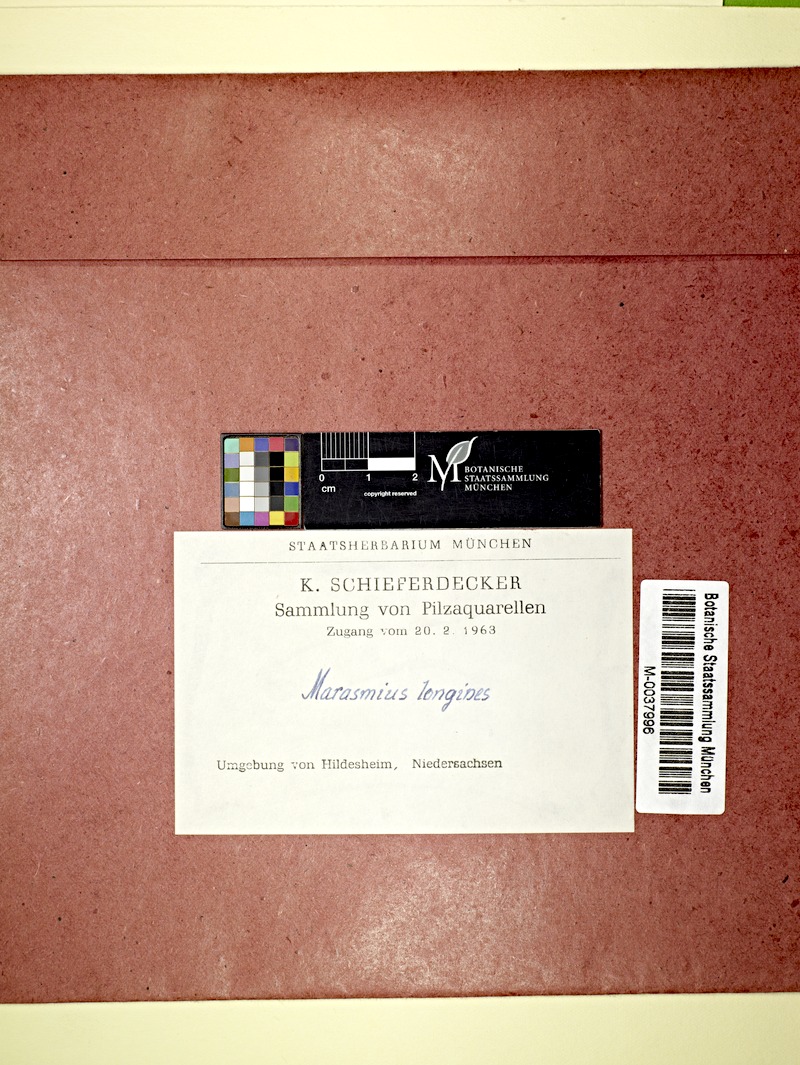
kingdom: Fungi
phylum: Basidiomycota
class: Agaricomycetes
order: Agaricales
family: Physalacriaceae
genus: Xerula
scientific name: Xerula pudens
